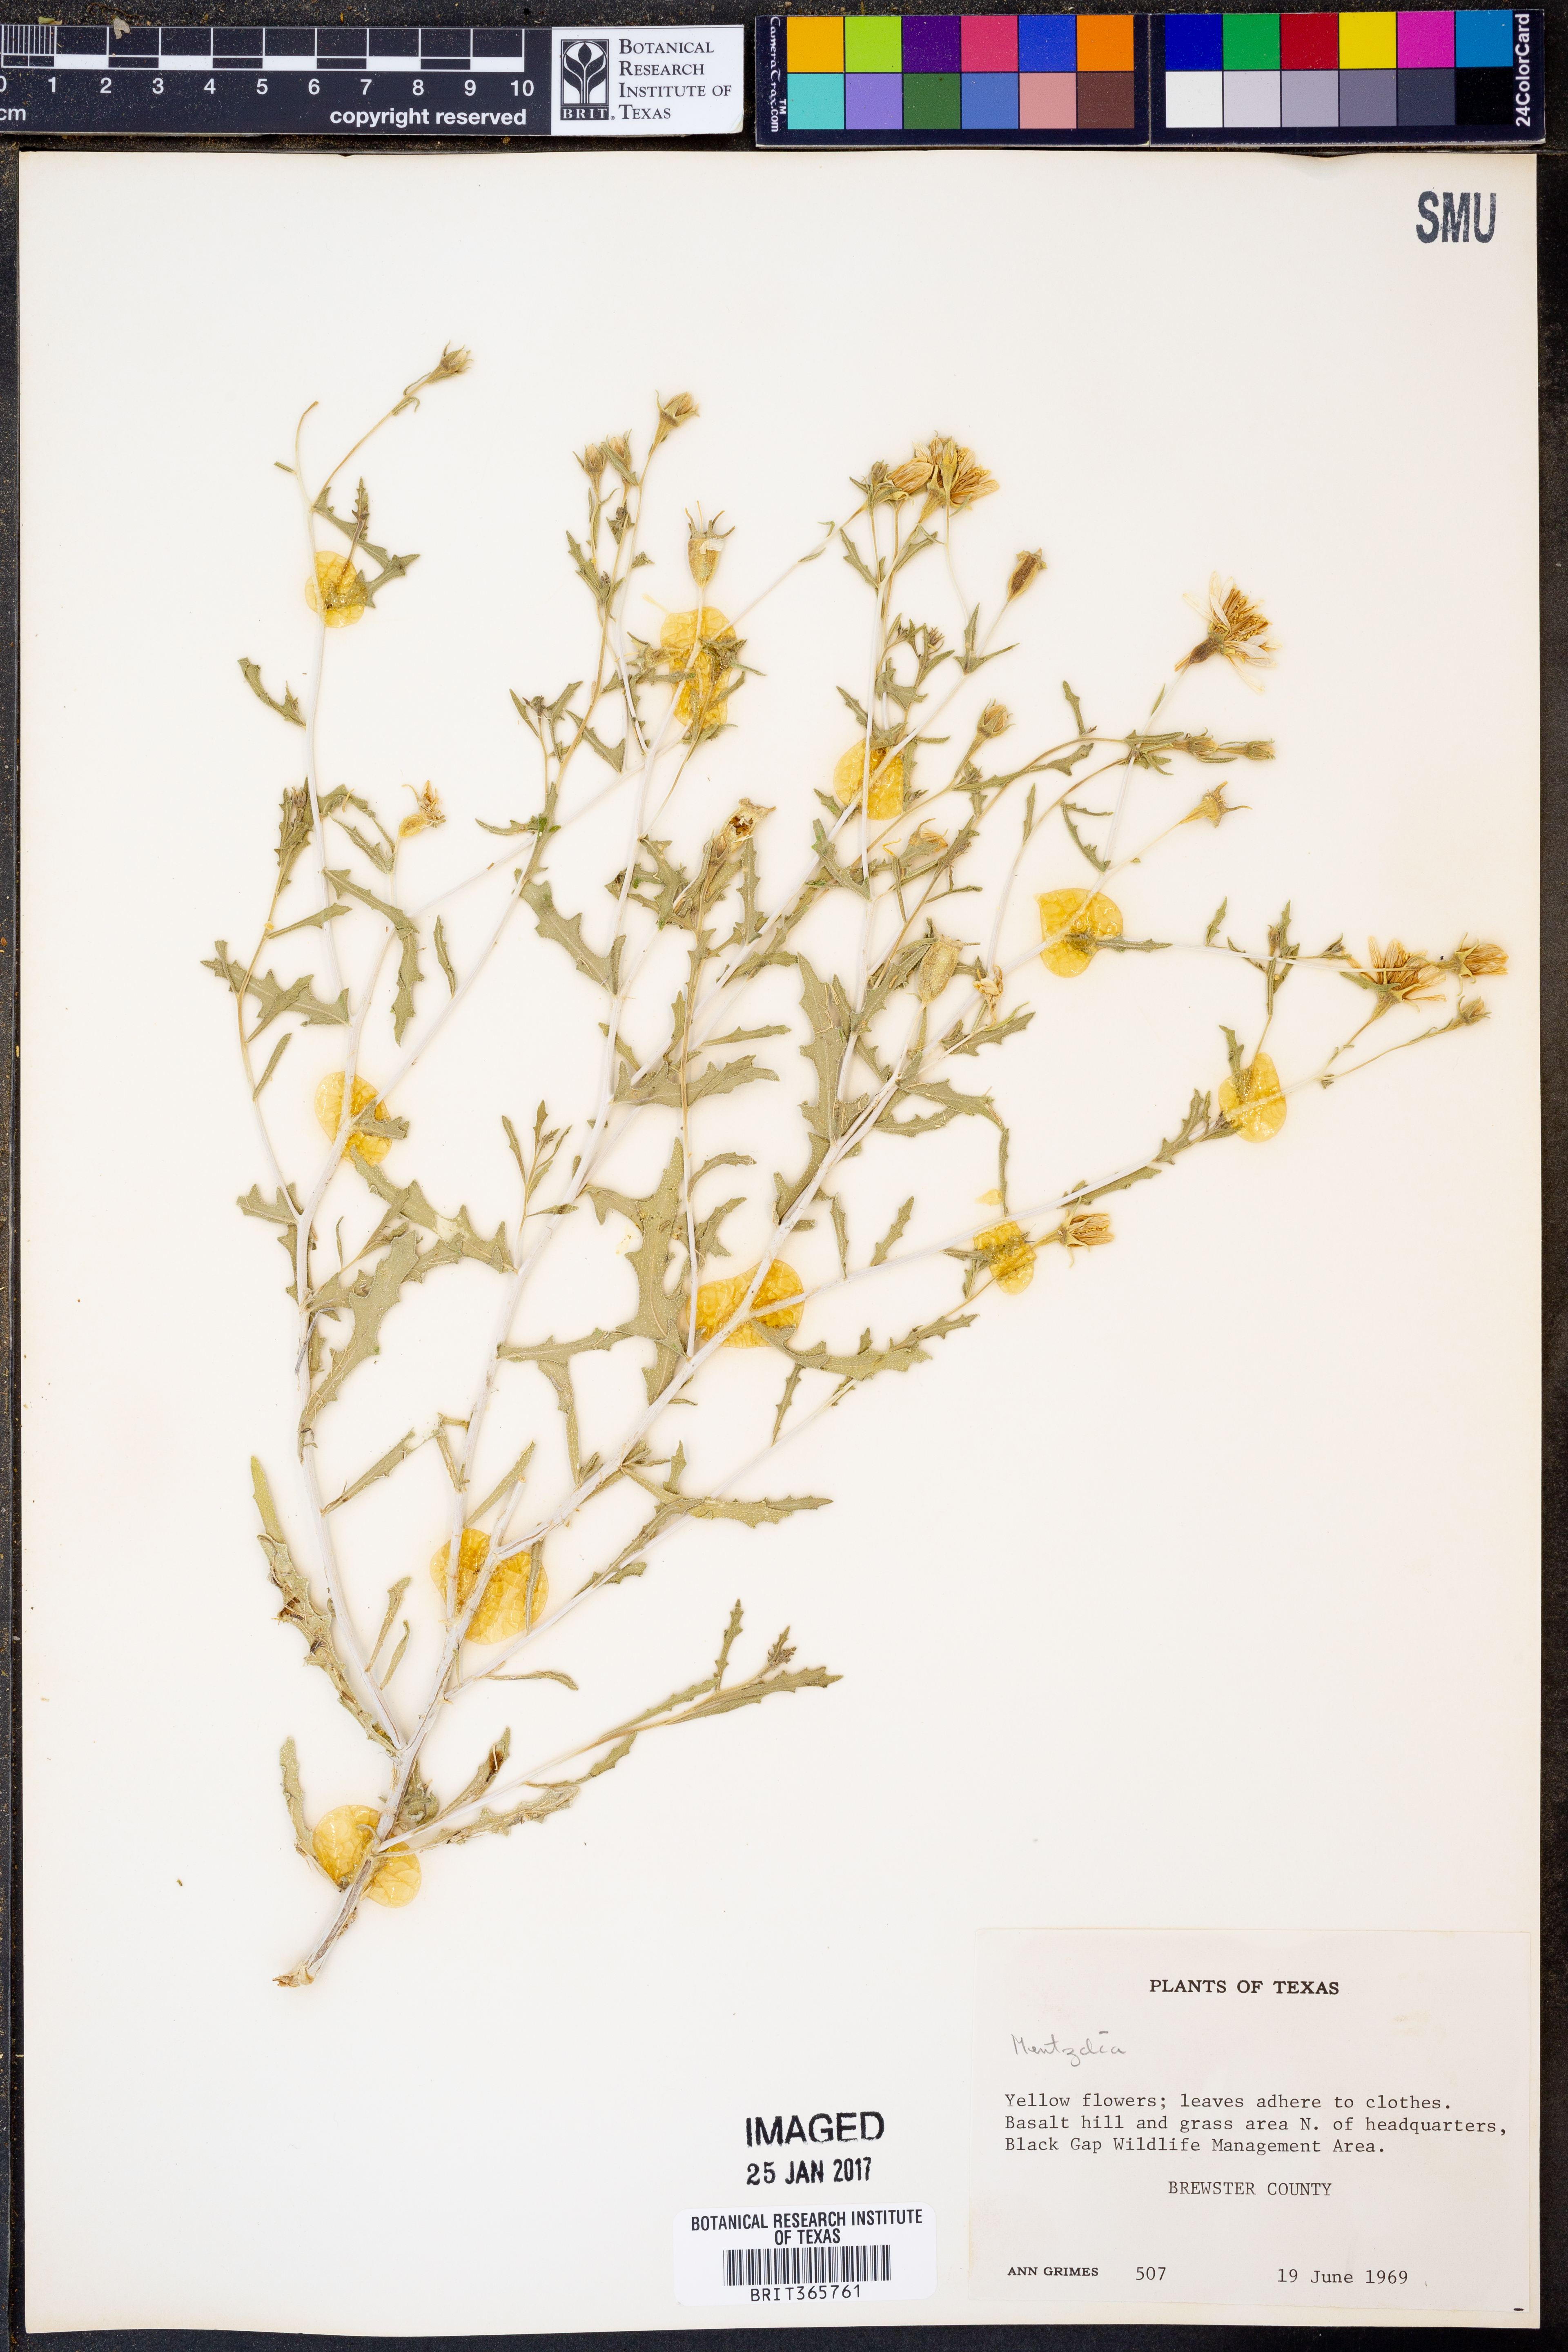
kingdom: Plantae
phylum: Tracheophyta
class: Magnoliopsida
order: Cornales
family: Loasaceae
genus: Mentzelia
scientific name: Mentzelia
